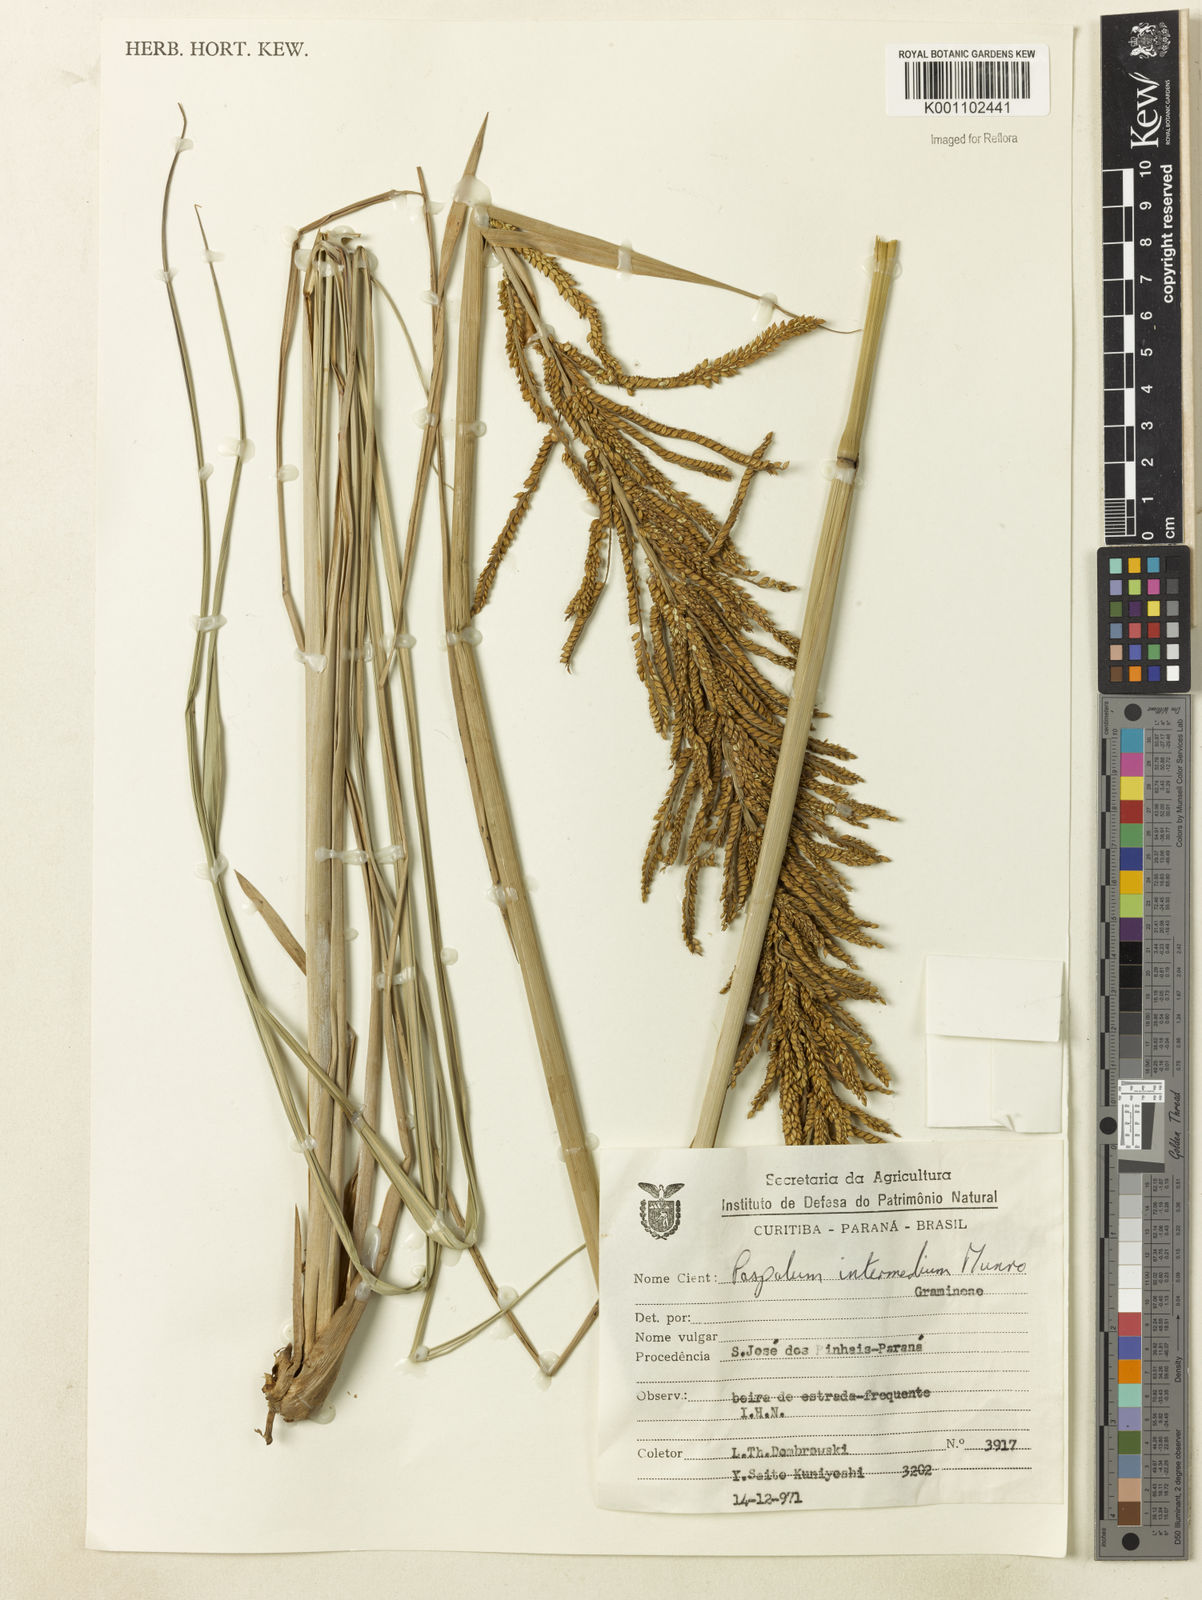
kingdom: Plantae
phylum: Tracheophyta
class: Liliopsida
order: Poales
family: Poaceae
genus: Paspalum
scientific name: Paspalum exaltatum
